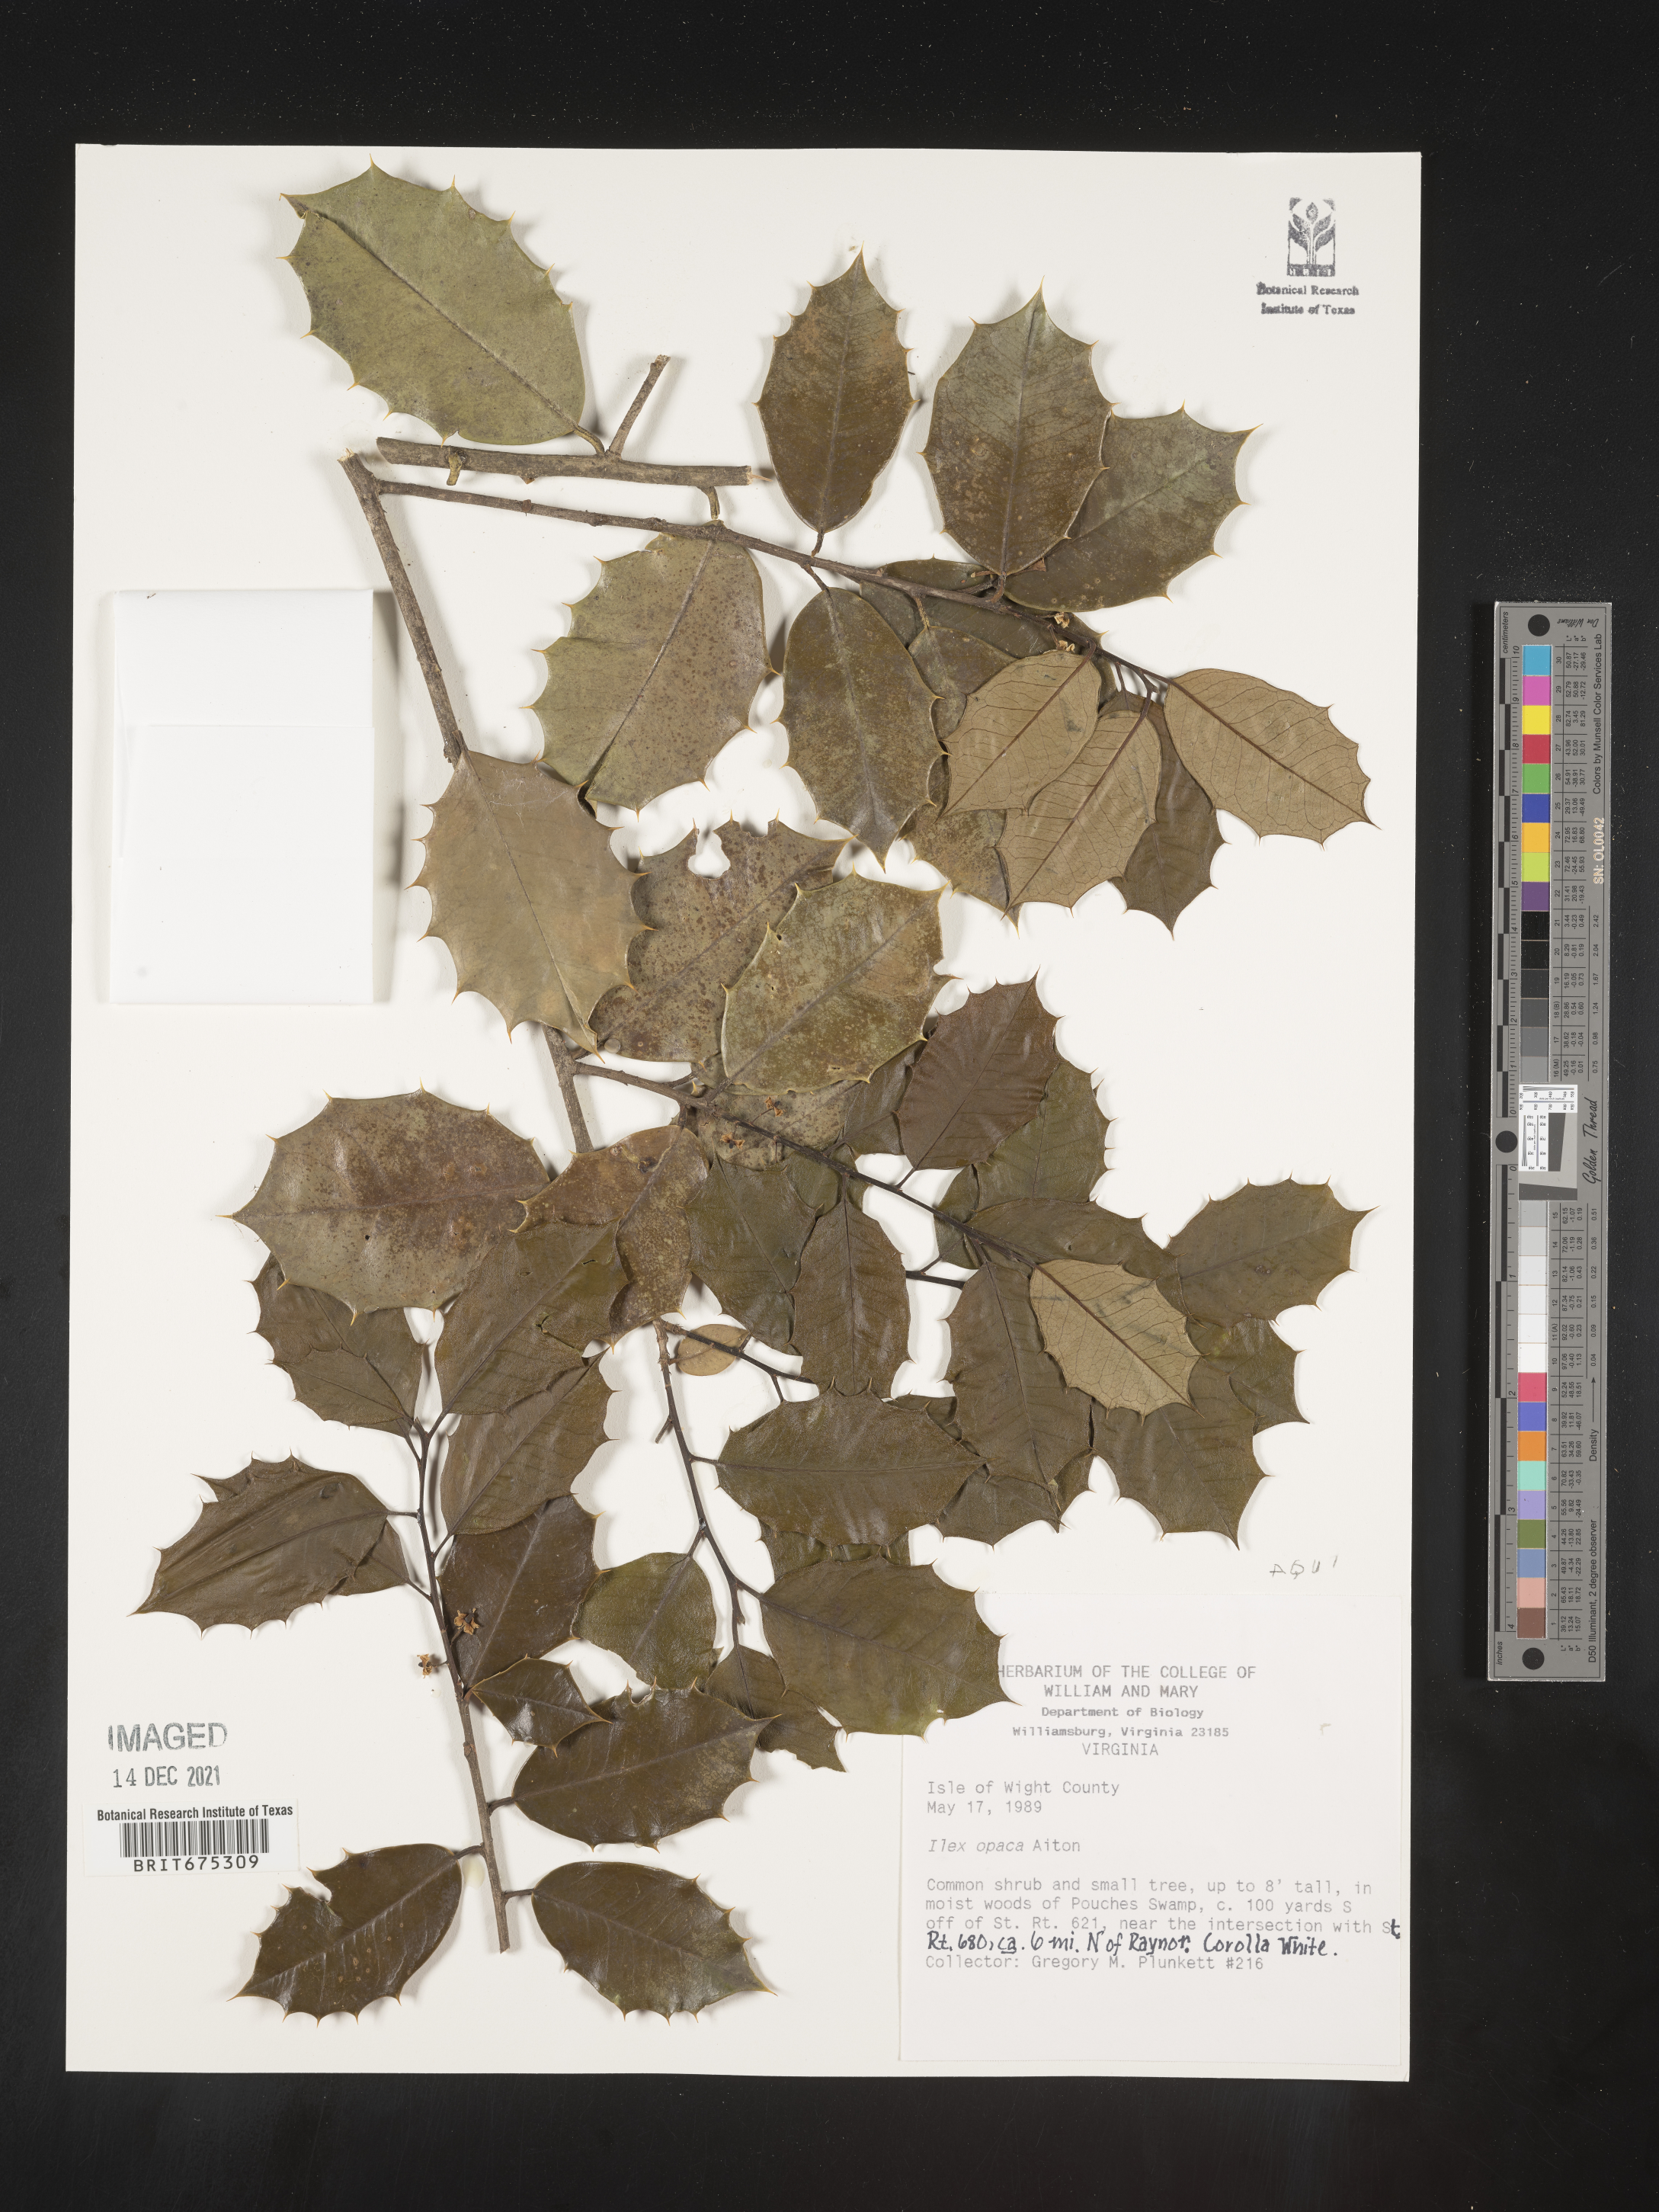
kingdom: Plantae
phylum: Tracheophyta
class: Magnoliopsida
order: Aquifoliales
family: Aquifoliaceae
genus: Ilex
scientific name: Ilex opaca
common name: American holly
